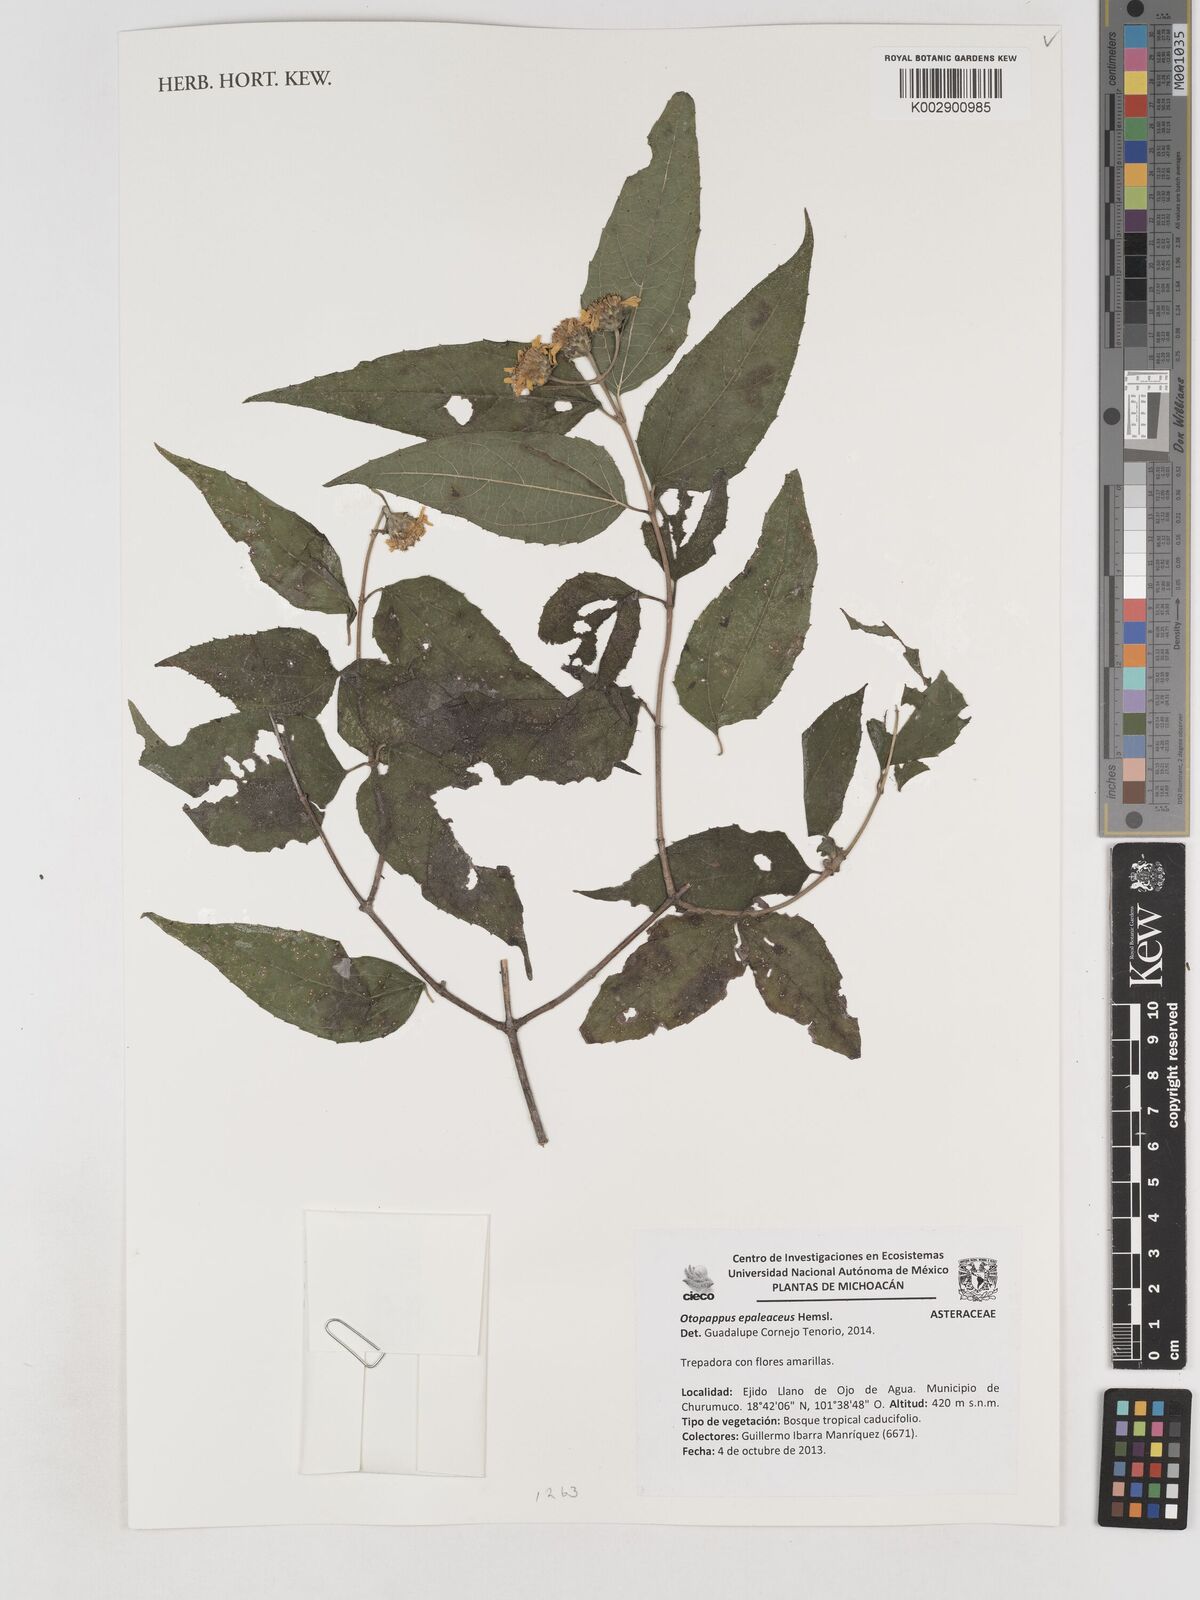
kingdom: Plantae
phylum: Tracheophyta
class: Magnoliopsida
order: Asterales
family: Asteraceae
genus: Otopappus
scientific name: Otopappus epaleaceus
